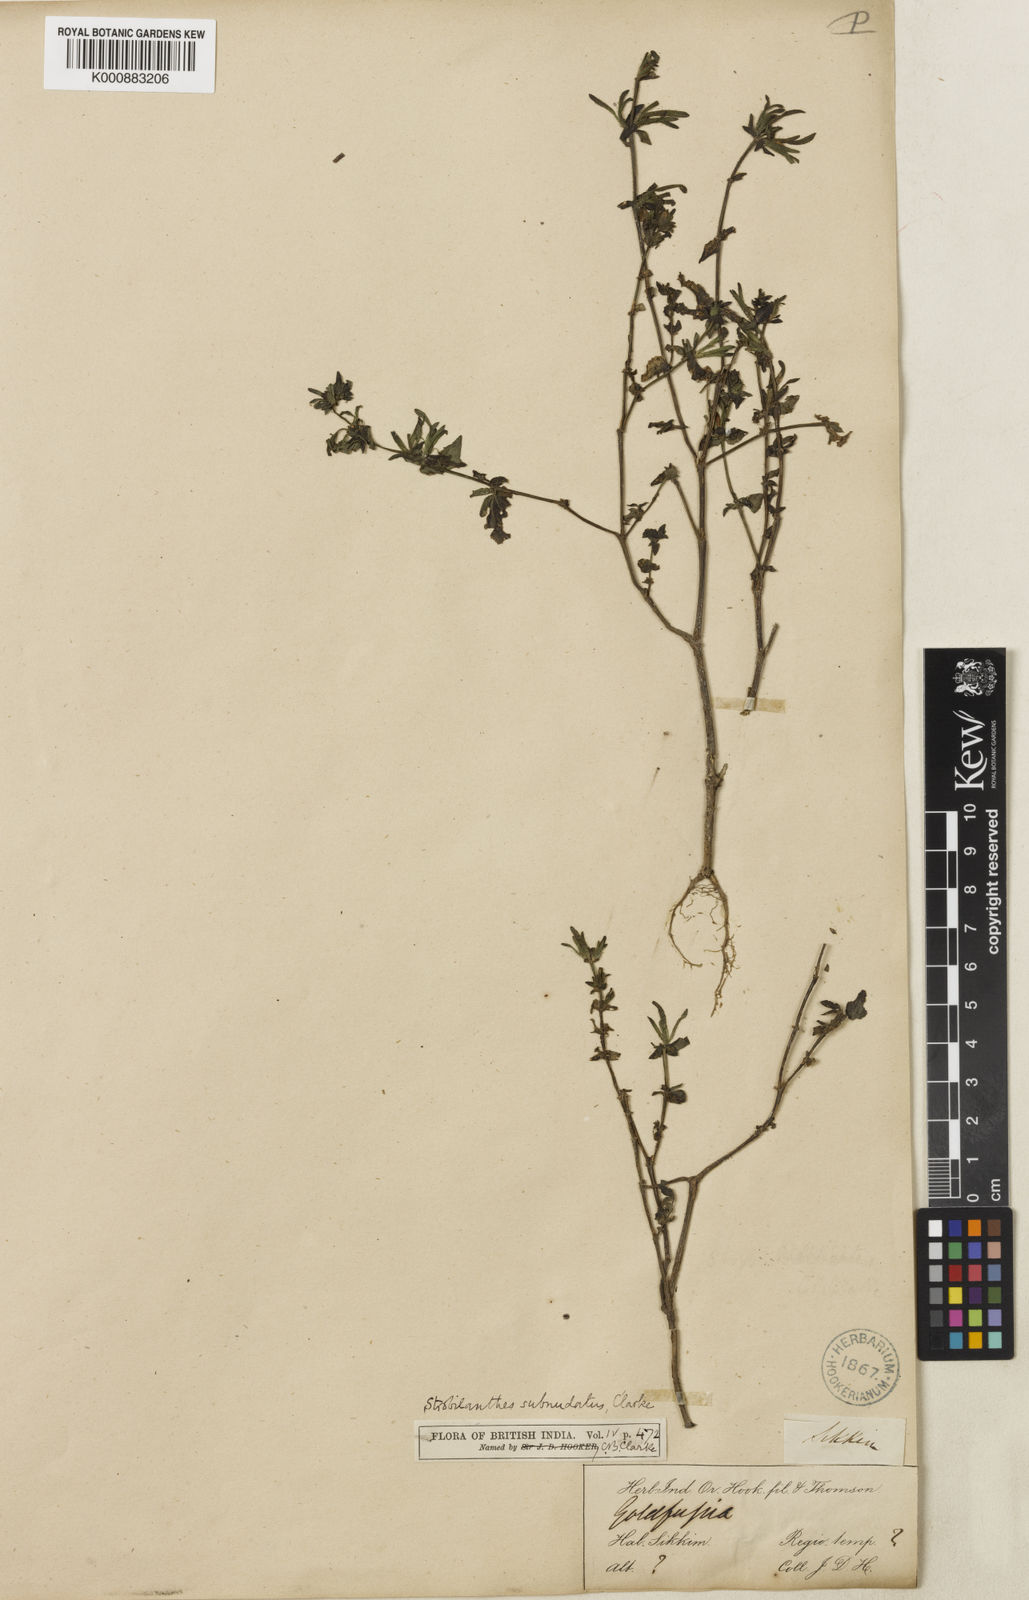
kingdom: Plantae
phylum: Tracheophyta
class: Magnoliopsida
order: Lamiales
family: Acanthaceae
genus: Strobilanthes
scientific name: Strobilanthes subnudata
